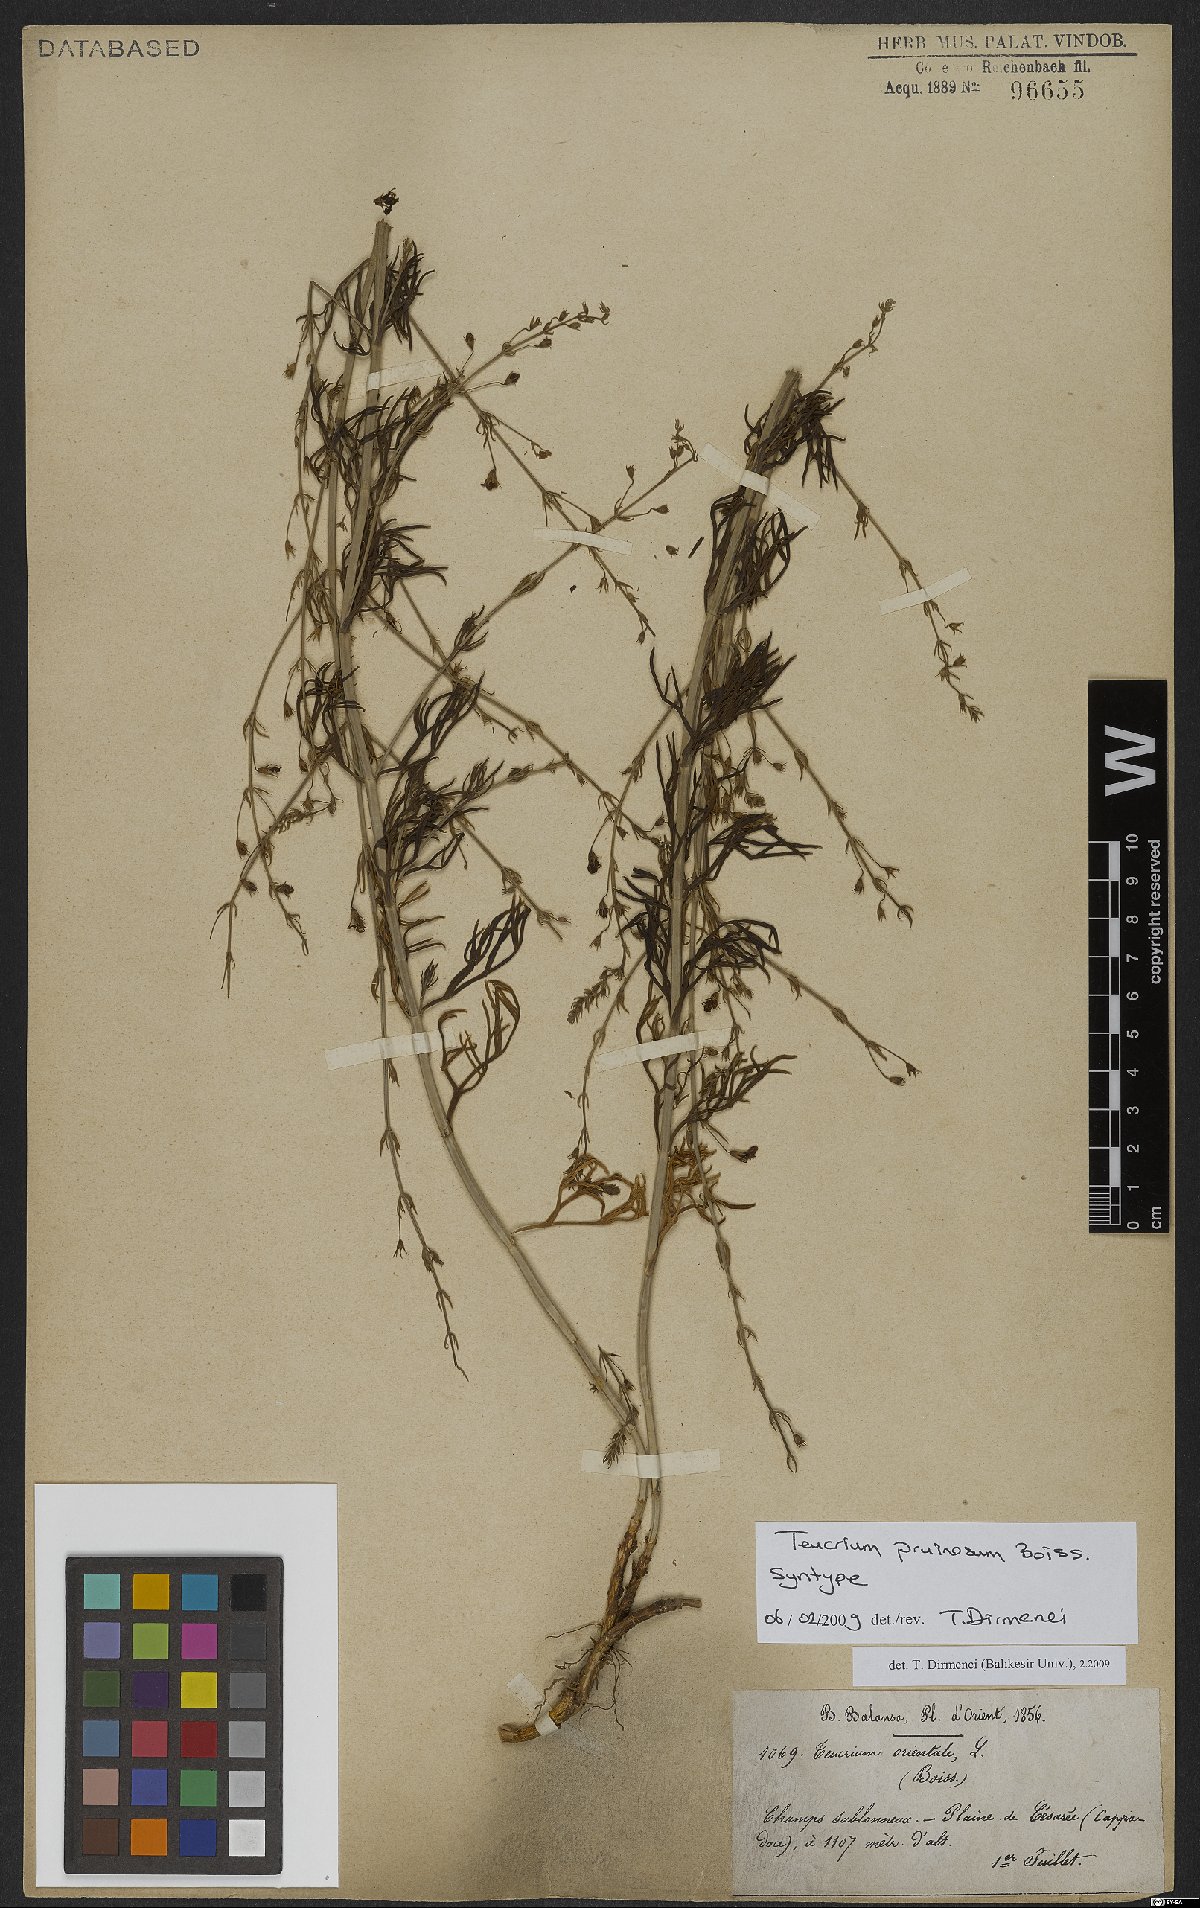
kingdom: Plantae
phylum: Tracheophyta
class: Magnoliopsida
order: Lamiales
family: Lamiaceae
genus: Teucrium
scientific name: Teucrium pruinosum
